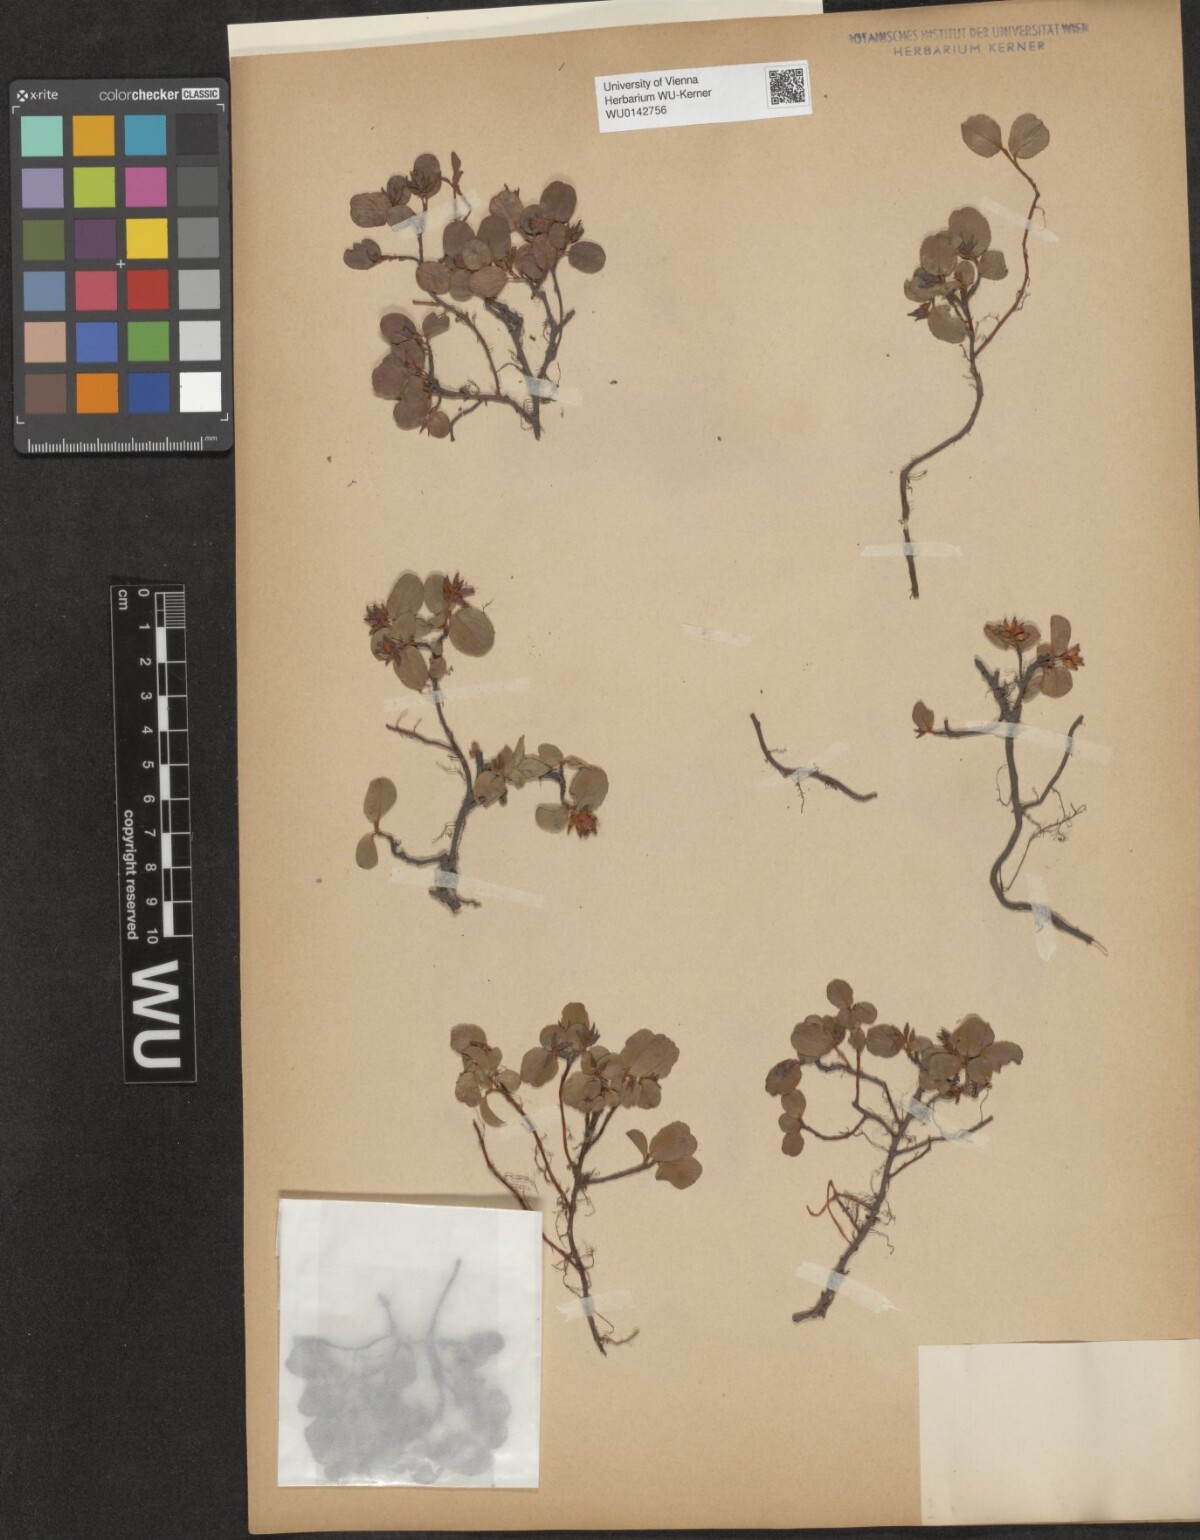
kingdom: Plantae
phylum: Tracheophyta
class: Magnoliopsida
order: Malpighiales
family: Salicaceae
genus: Salix
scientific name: Salix herbacea
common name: Dwarf willow
